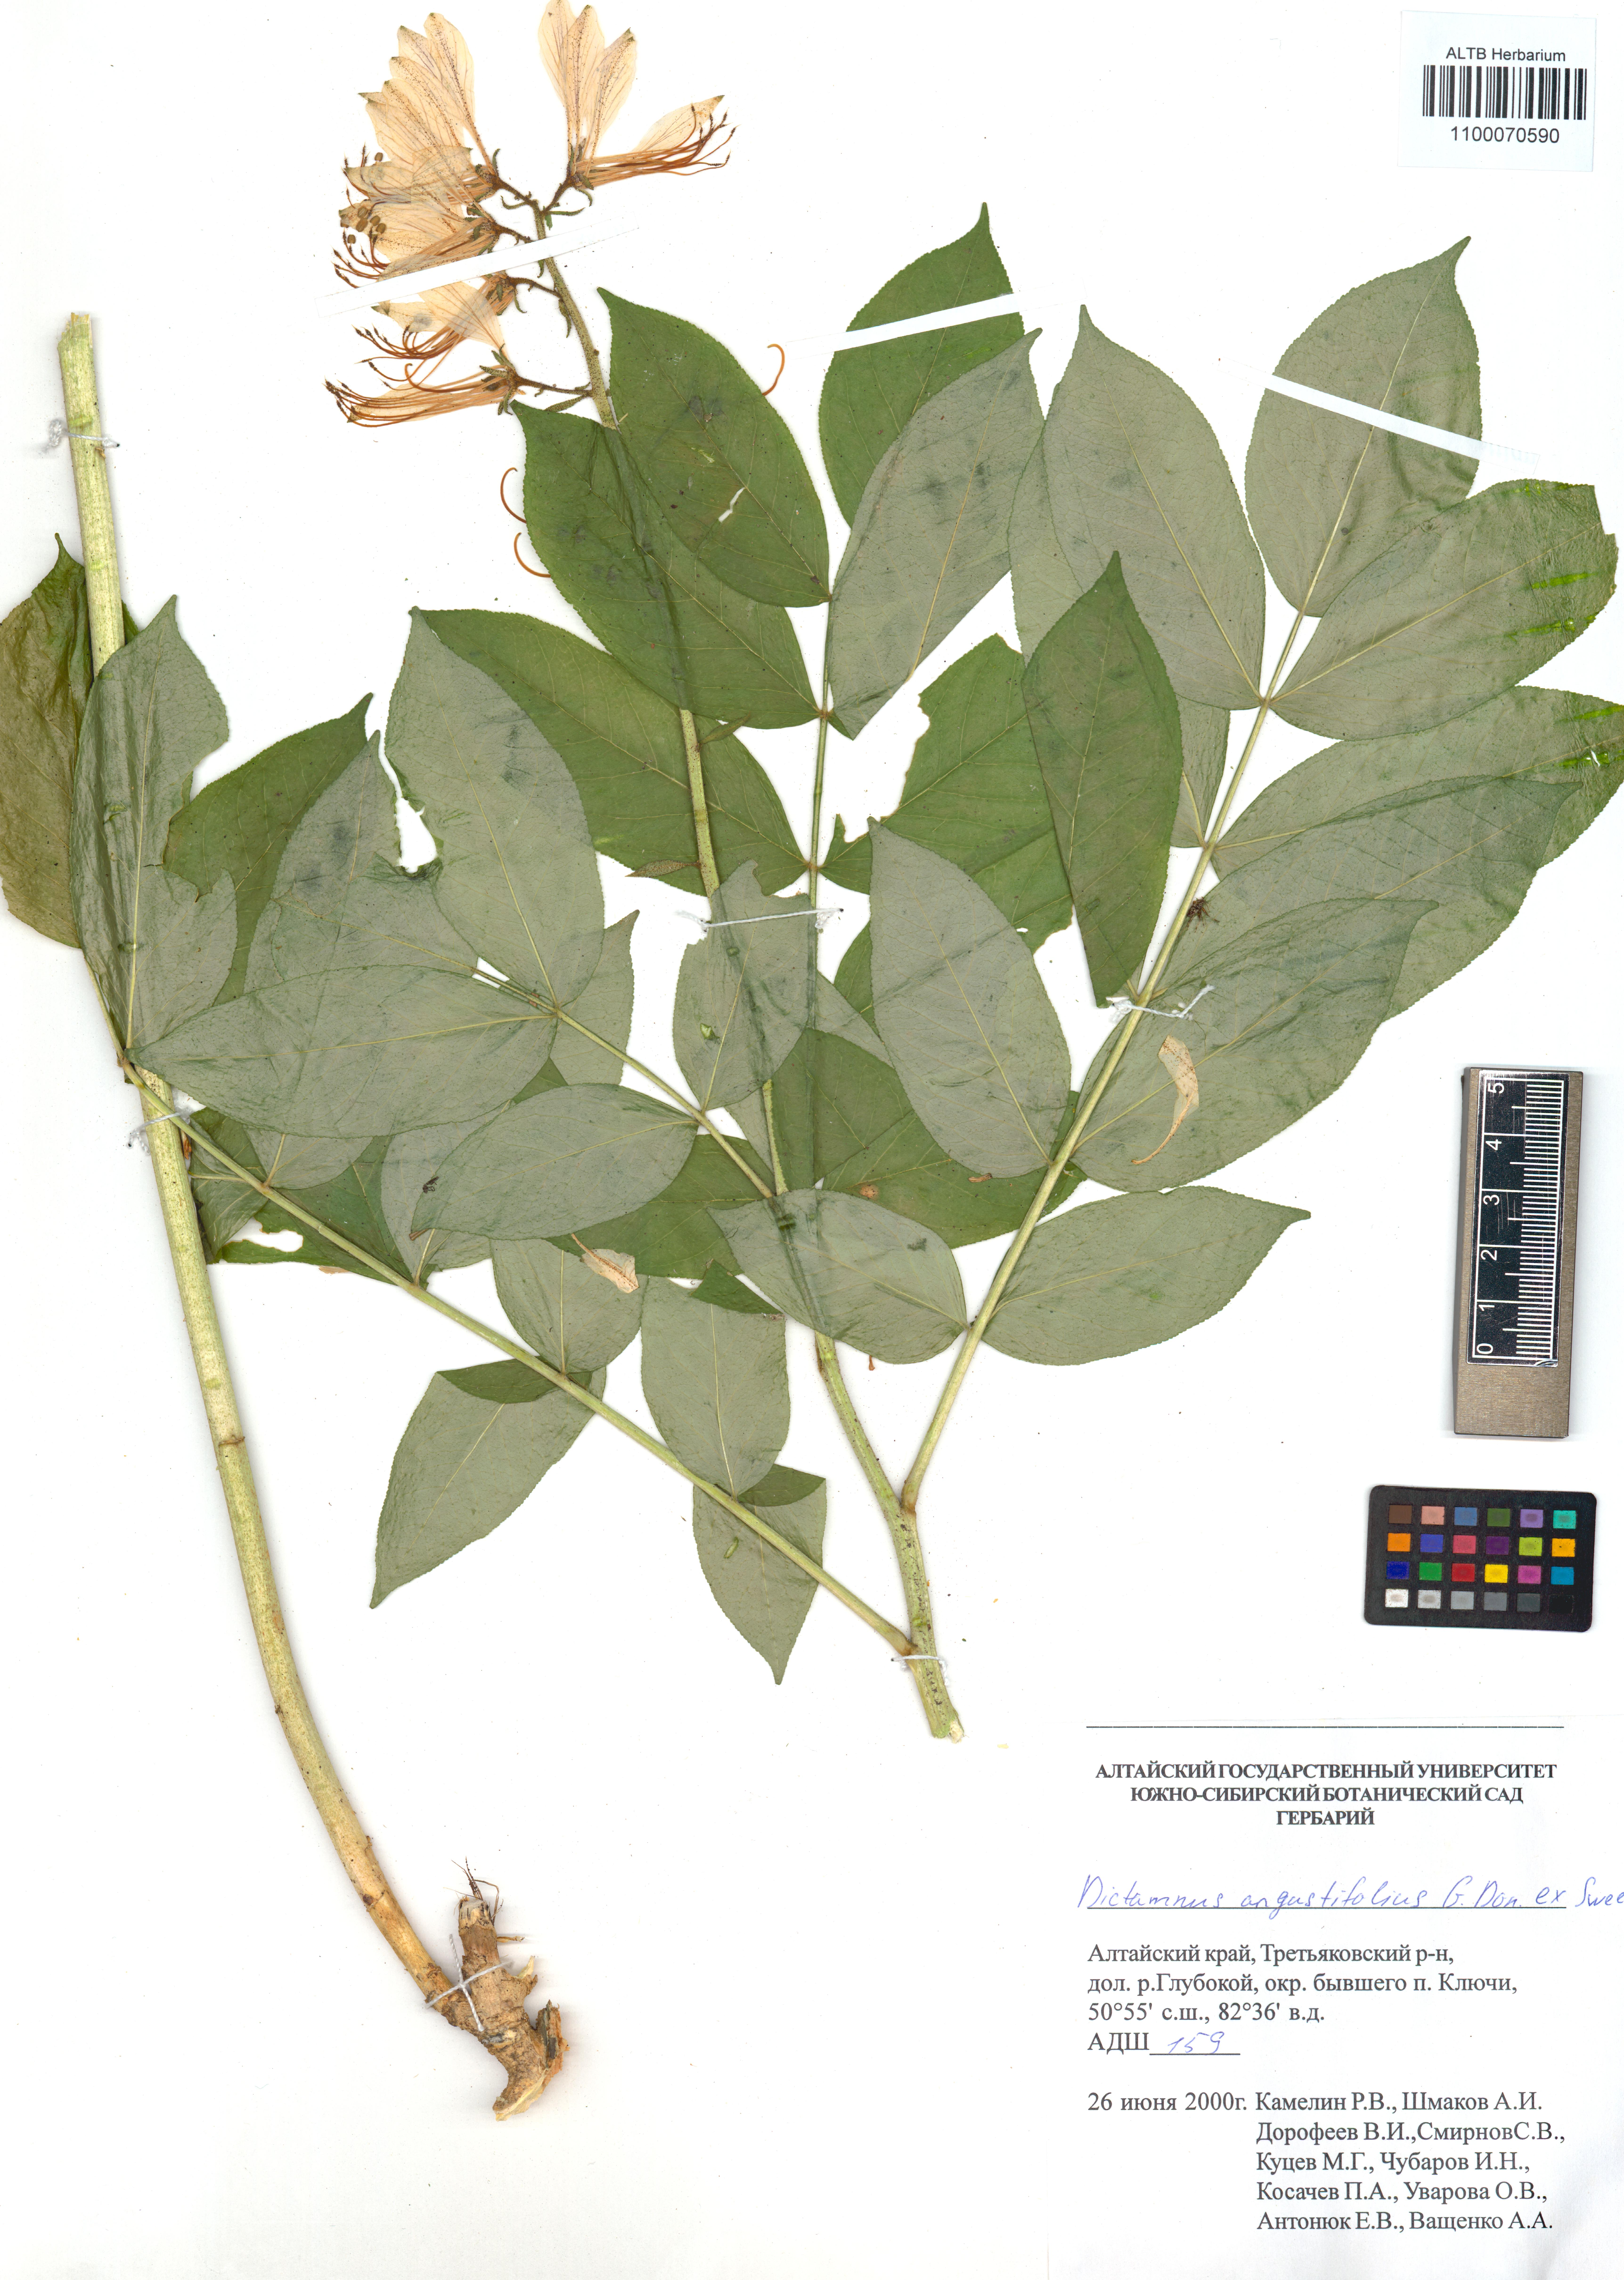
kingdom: Plantae
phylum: Tracheophyta
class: Magnoliopsida
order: Sapindales
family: Rutaceae
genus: Dictamnus
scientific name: Dictamnus albus
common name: Gasplant
